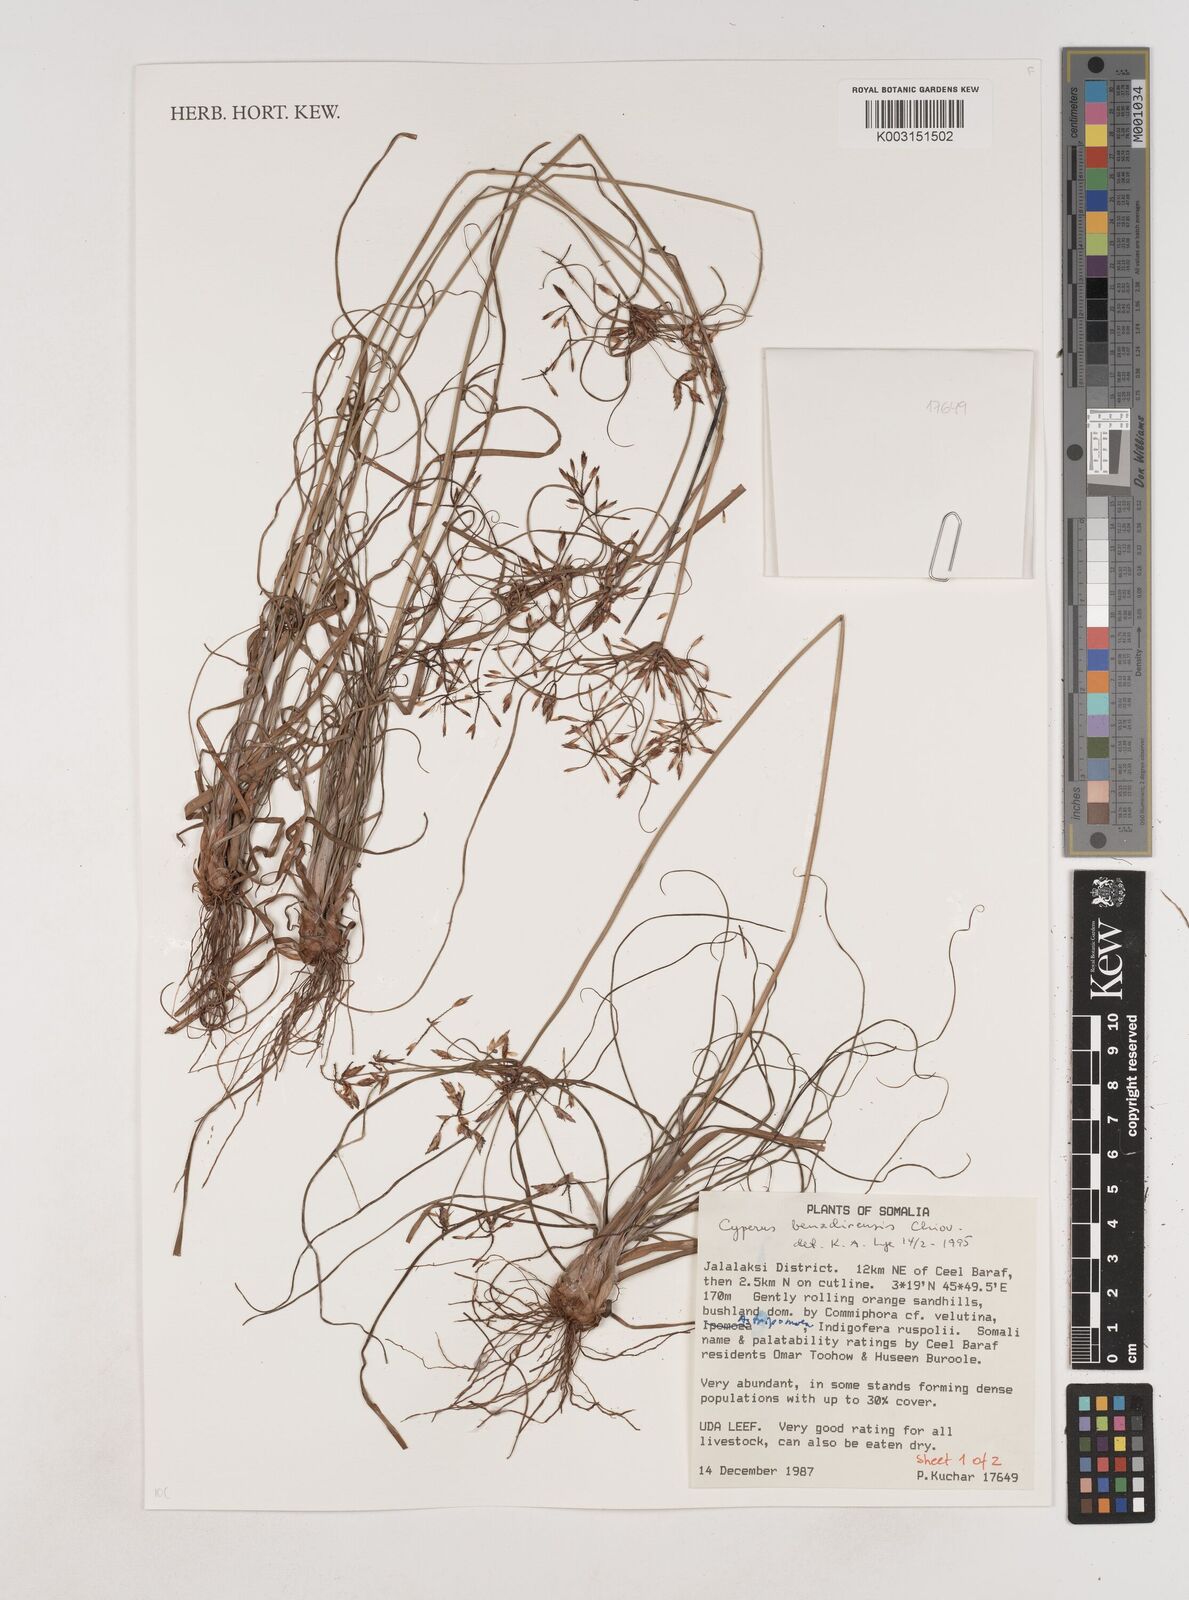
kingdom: Plantae
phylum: Tracheophyta
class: Liliopsida
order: Poales
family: Cyperaceae
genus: Cyperus
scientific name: Cyperus benadirensis
